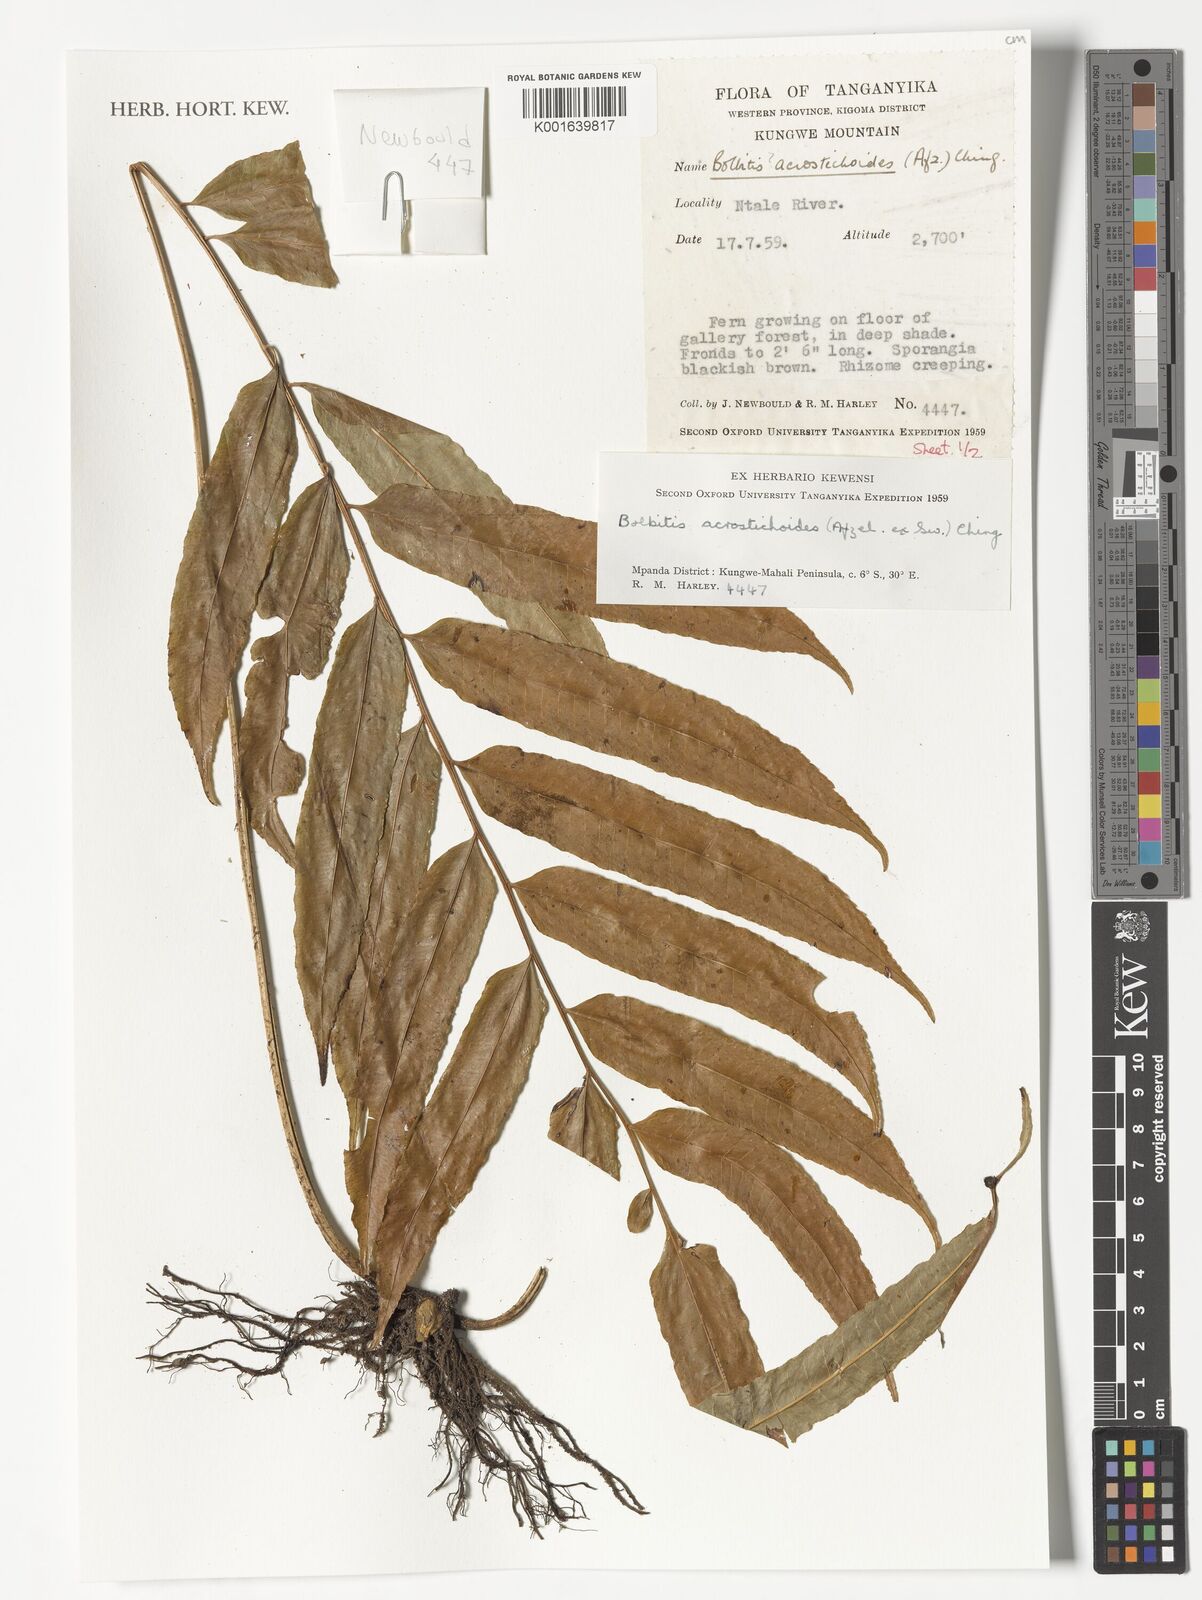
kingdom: Plantae
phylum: Tracheophyta
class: Polypodiopsida
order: Polypodiales
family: Dryopteridaceae
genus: Bolbitis
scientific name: Bolbitis acrostichoides
